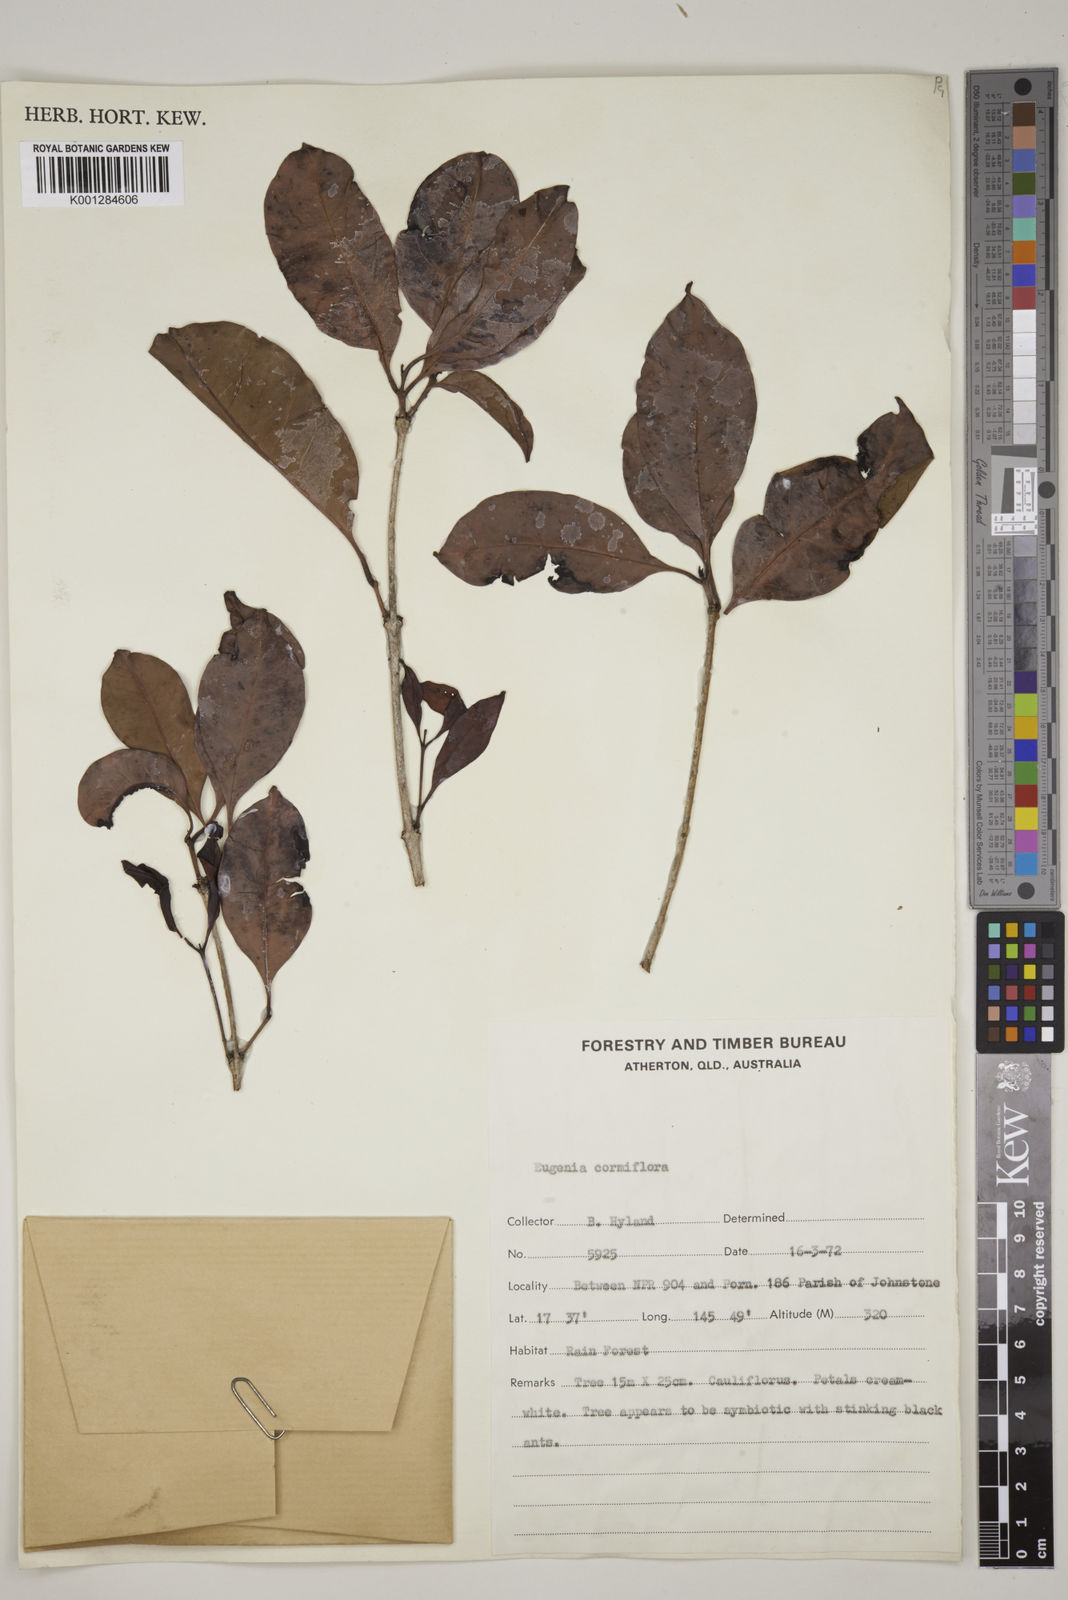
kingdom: Plantae
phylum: Tracheophyta
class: Magnoliopsida
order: Myrtales
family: Myrtaceae
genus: Syzygium
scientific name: Syzygium cormiflorum
